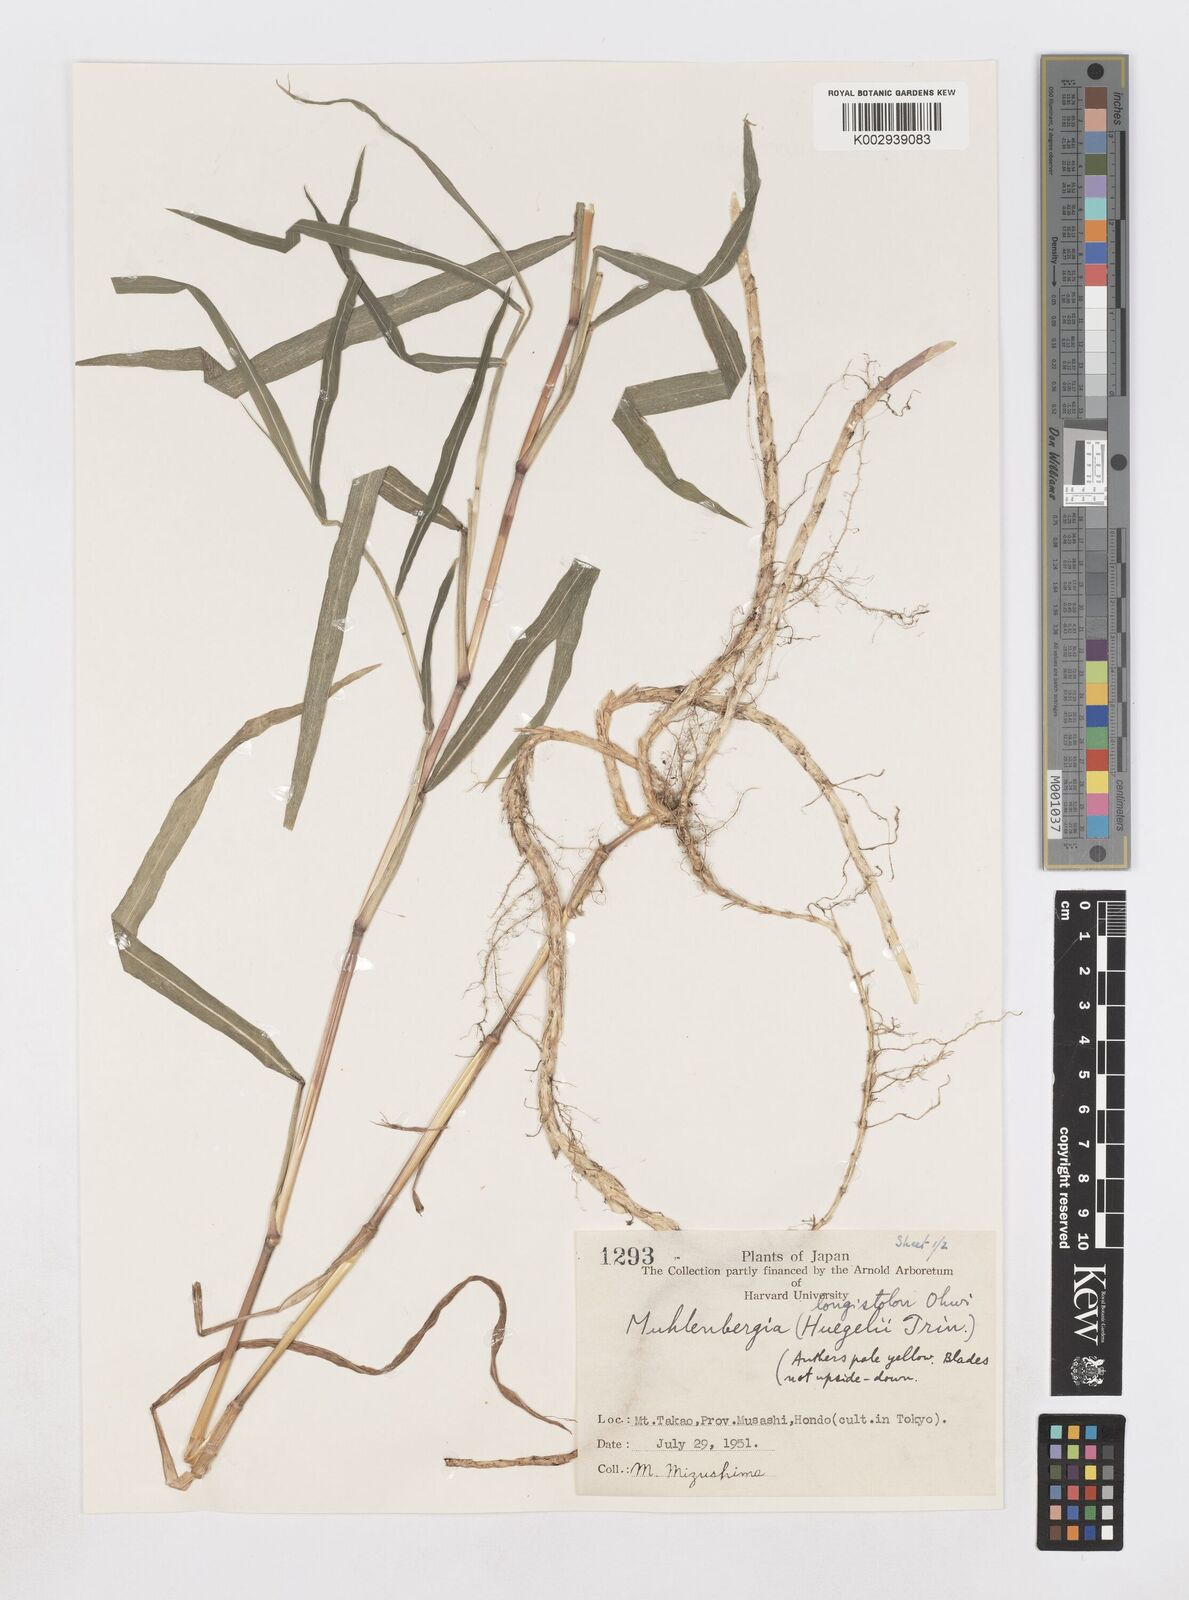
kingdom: Plantae
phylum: Tracheophyta
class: Liliopsida
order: Poales
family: Poaceae
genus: Muhlenbergia
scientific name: Muhlenbergia huegelii
